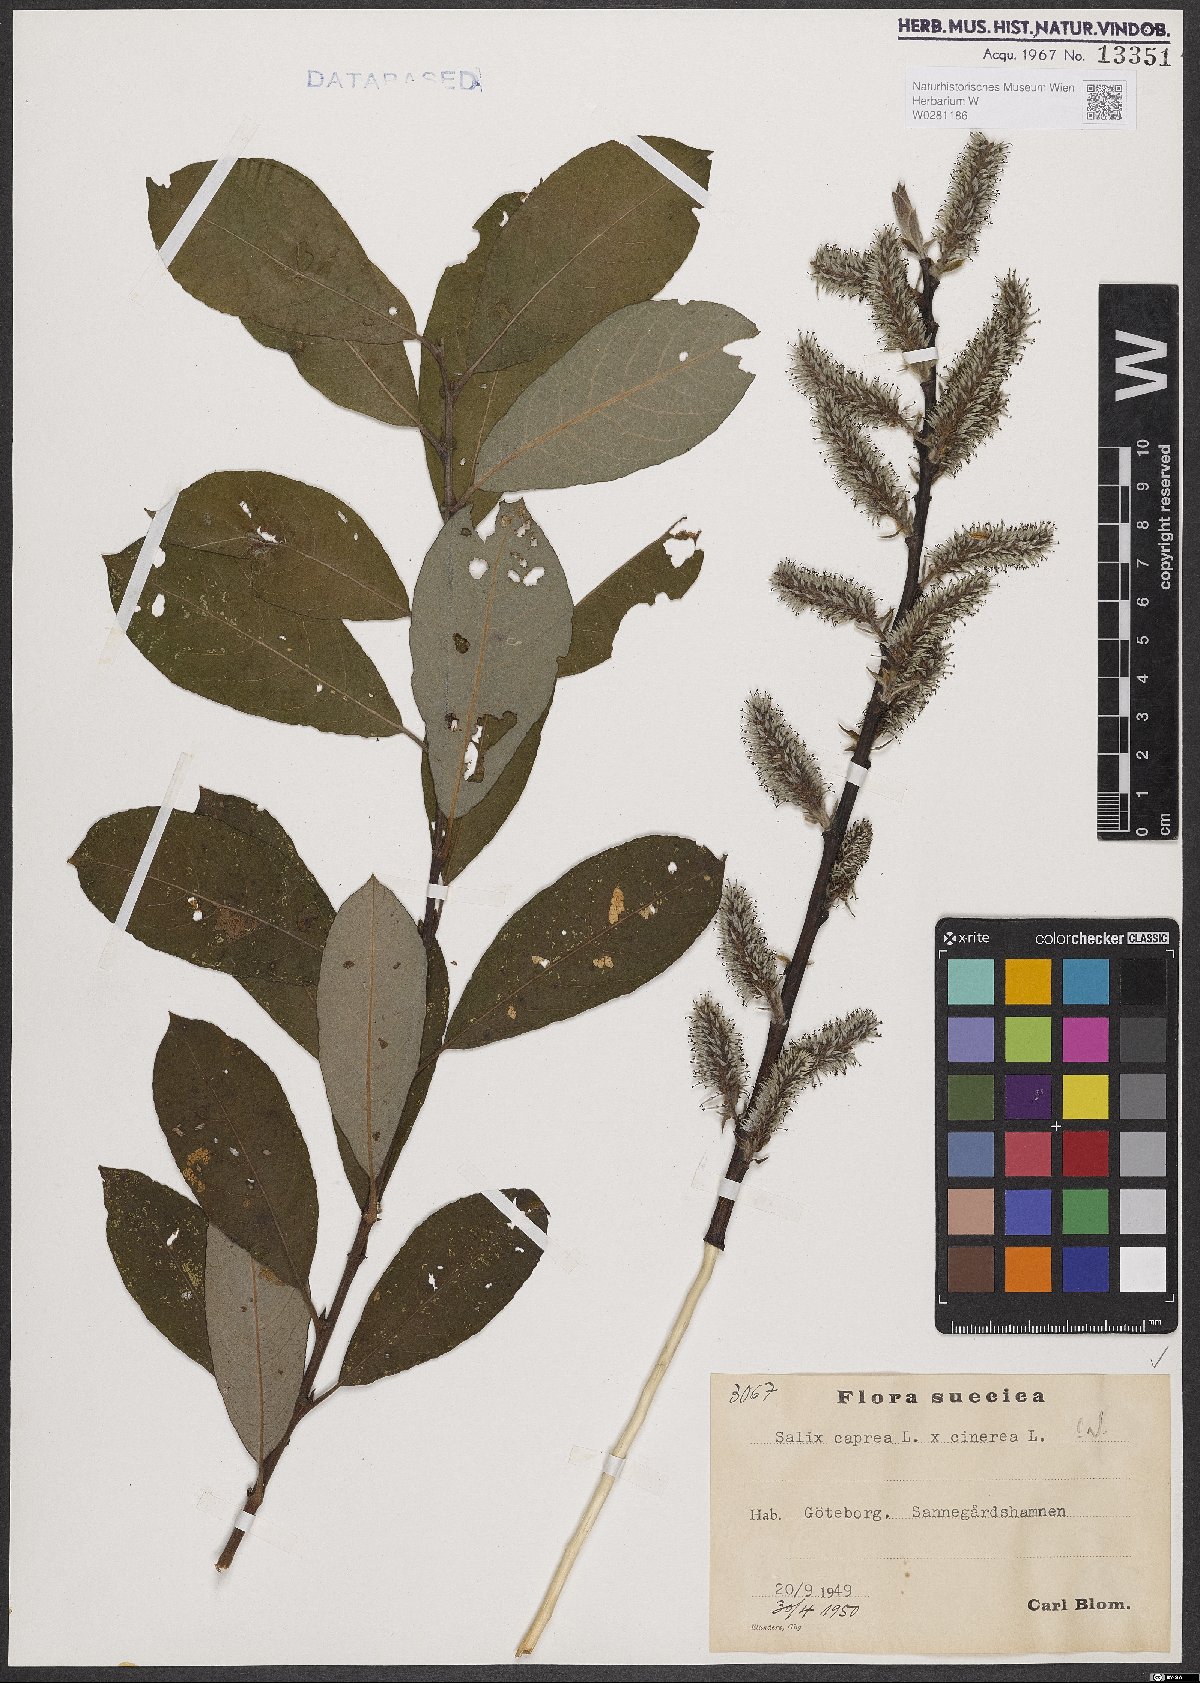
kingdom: Plantae
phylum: Tracheophyta
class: Magnoliopsida
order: Malpighiales
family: Salicaceae
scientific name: Salicaceae
